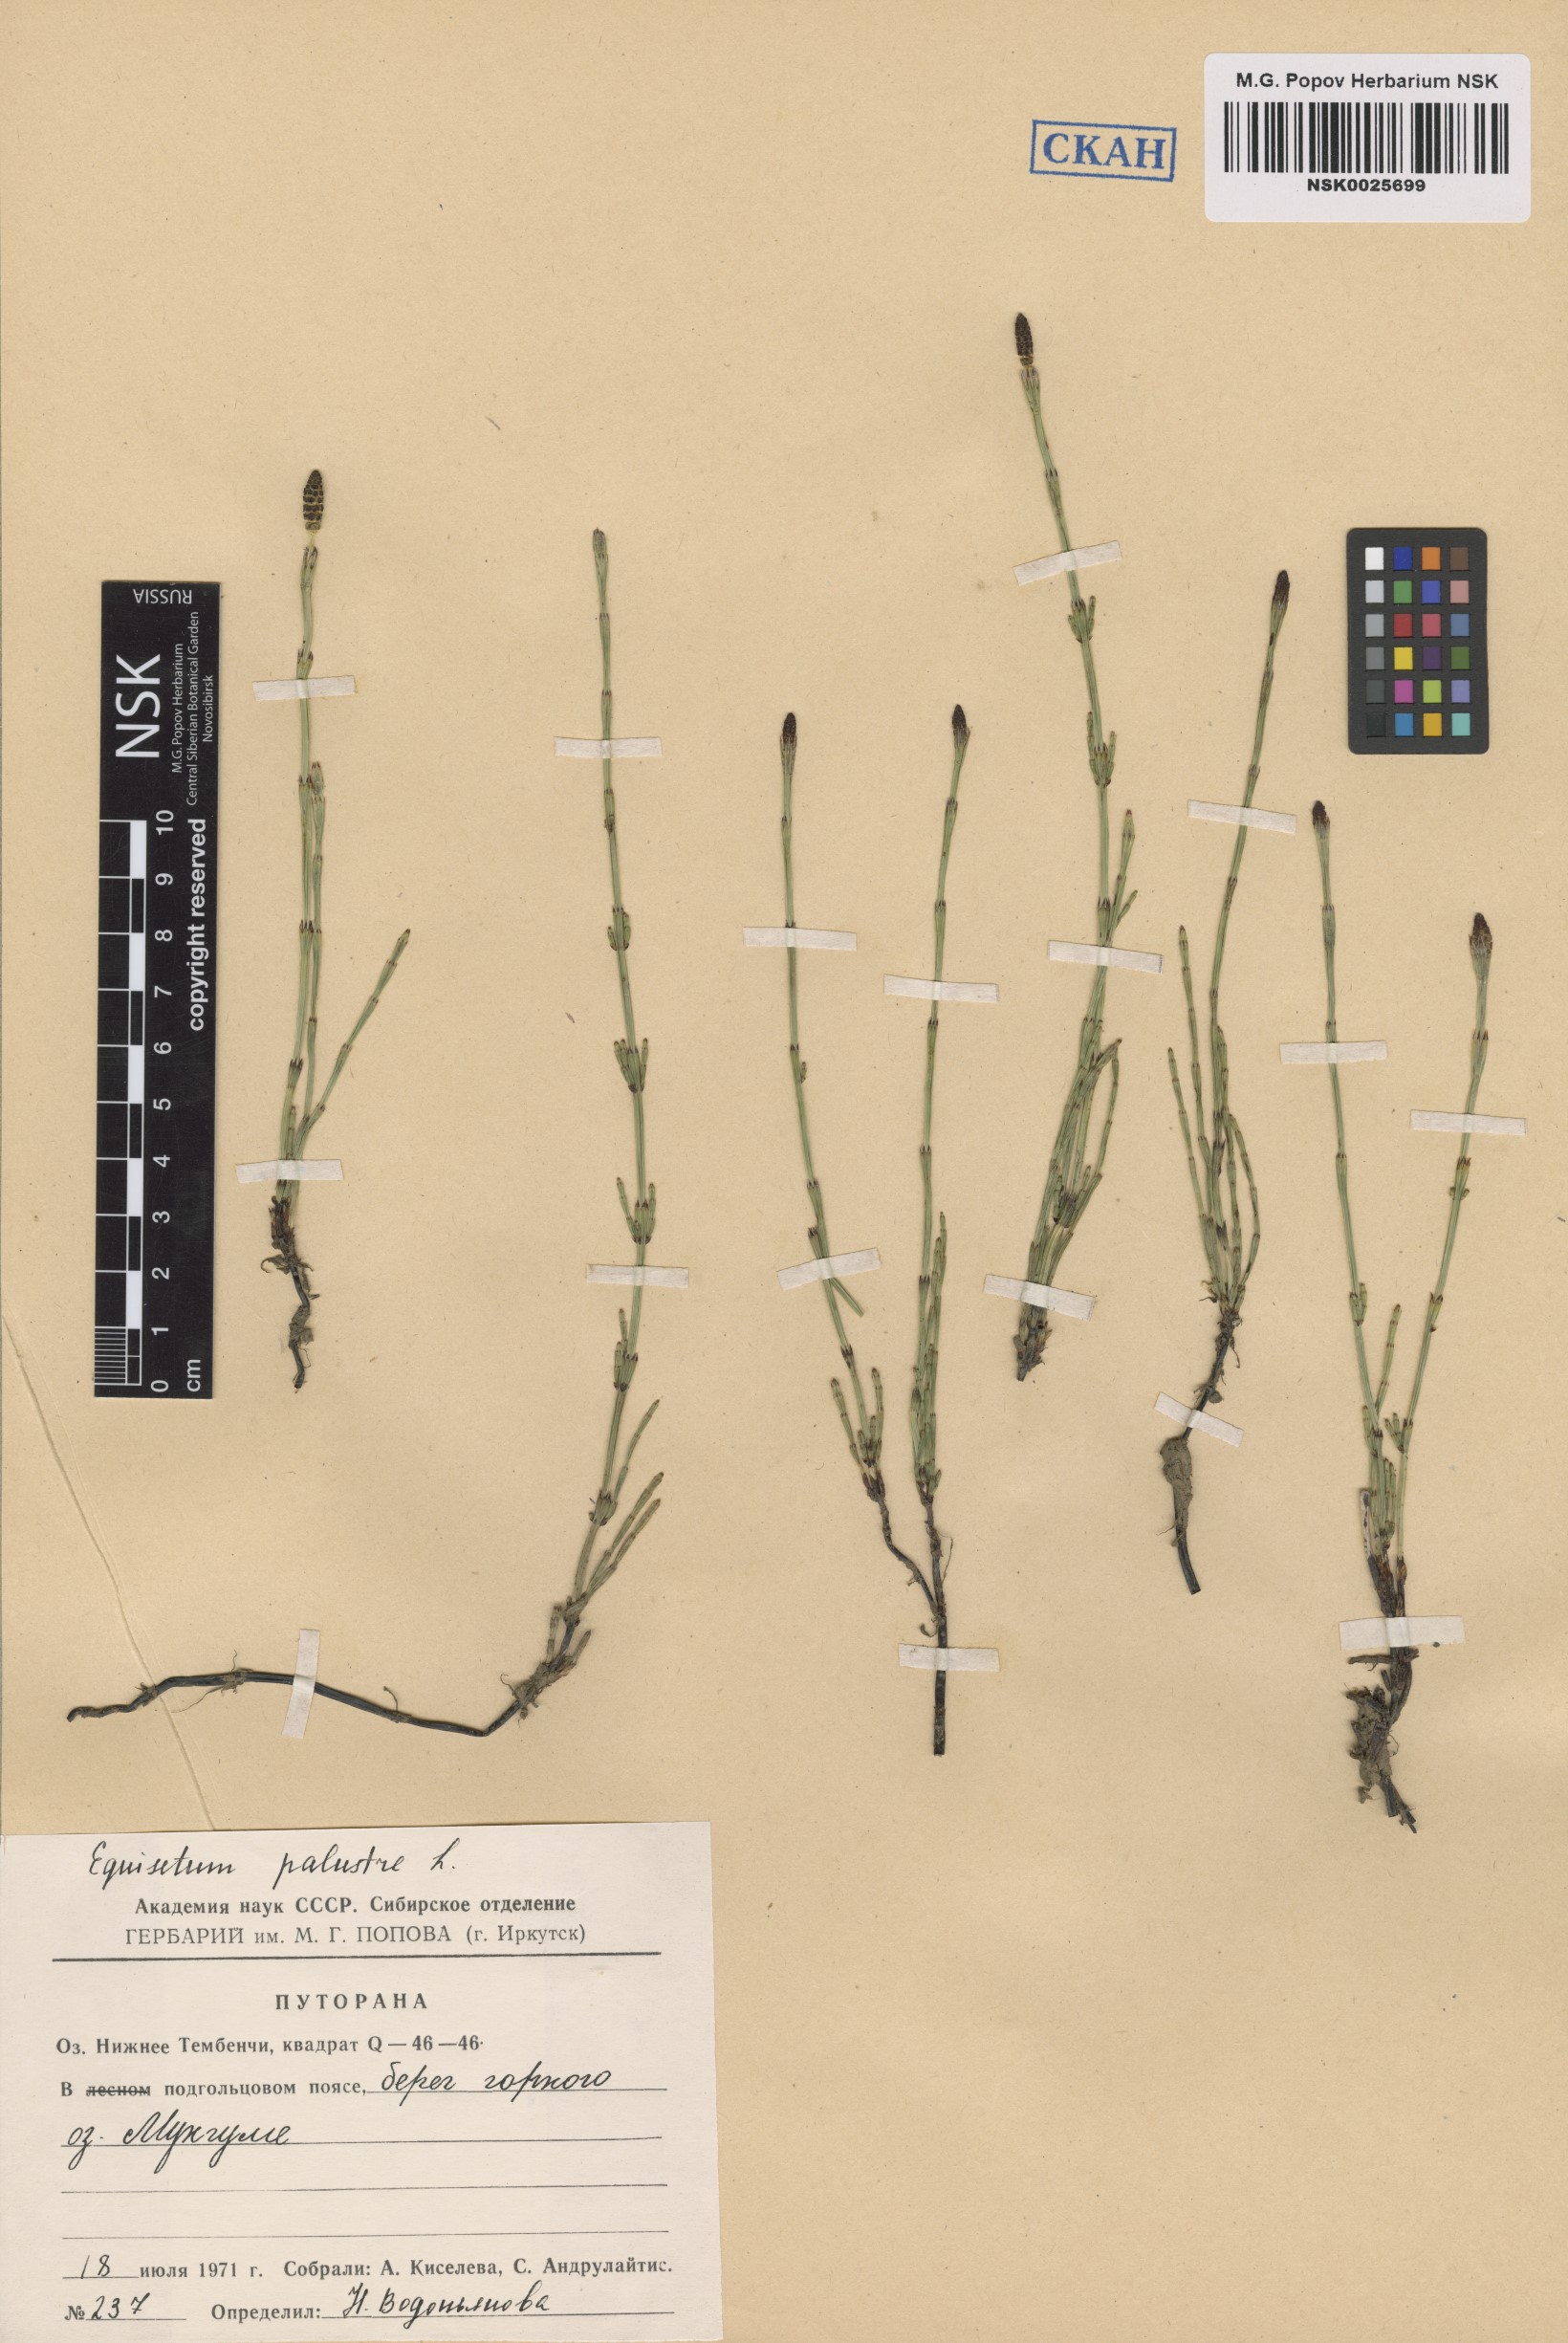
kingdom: Plantae
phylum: Tracheophyta
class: Polypodiopsida
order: Equisetales
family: Equisetaceae
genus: Equisetum
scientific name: Equisetum palustre
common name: Marsh horsetail
